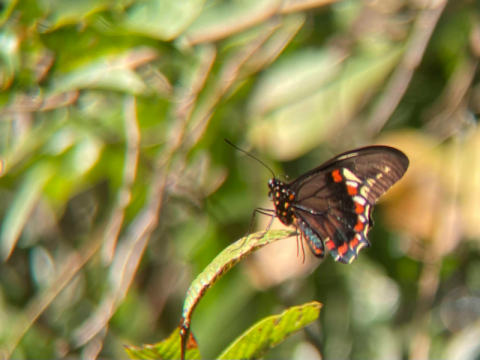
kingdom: Animalia
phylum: Arthropoda
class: Insecta
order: Lepidoptera
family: Papilionidae
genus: Battus
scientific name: Battus polydamas
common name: Polydamas Swallowtail
